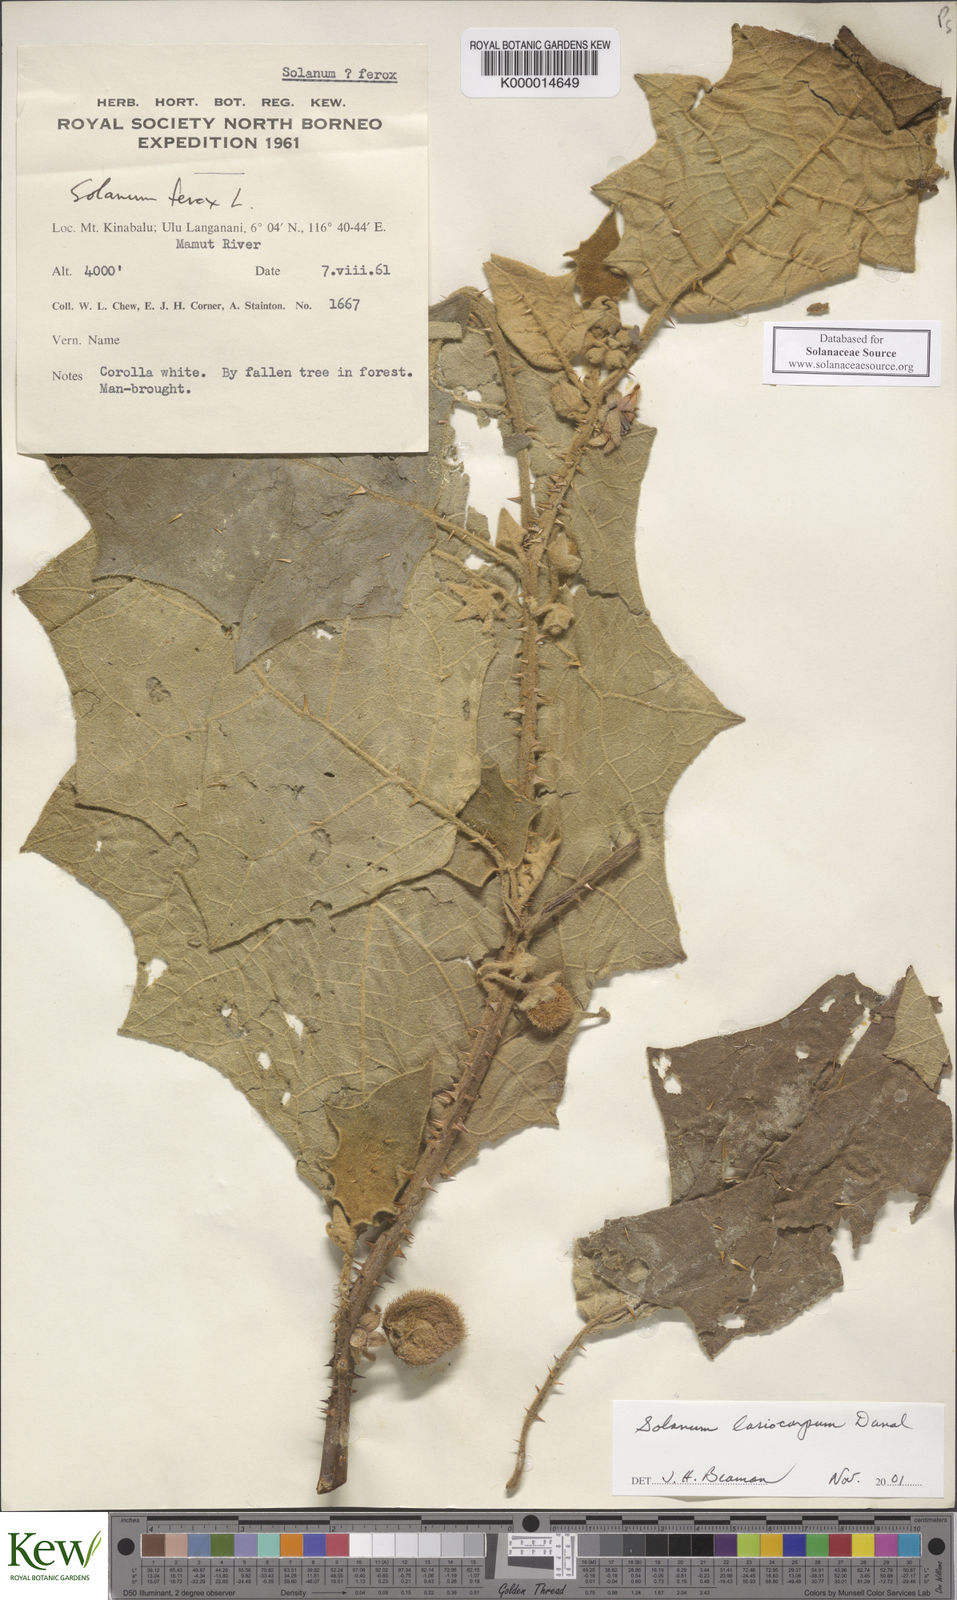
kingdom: Plantae
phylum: Tracheophyta
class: Magnoliopsida
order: Solanales
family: Solanaceae
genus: Solanum
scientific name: Solanum lasiocarpum
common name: Indian nightshade
